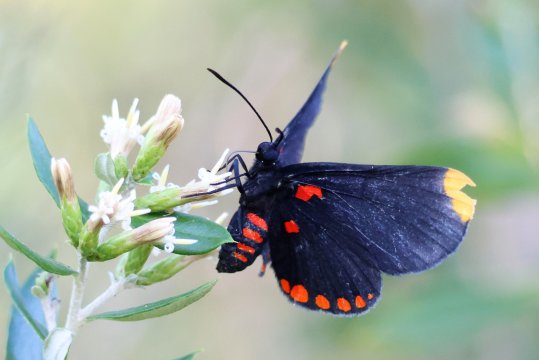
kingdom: Animalia
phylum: Arthropoda
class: Insecta
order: Lepidoptera
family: Lycaenidae
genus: Melanis
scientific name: Melanis pixe
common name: Red-bordered Pixie
